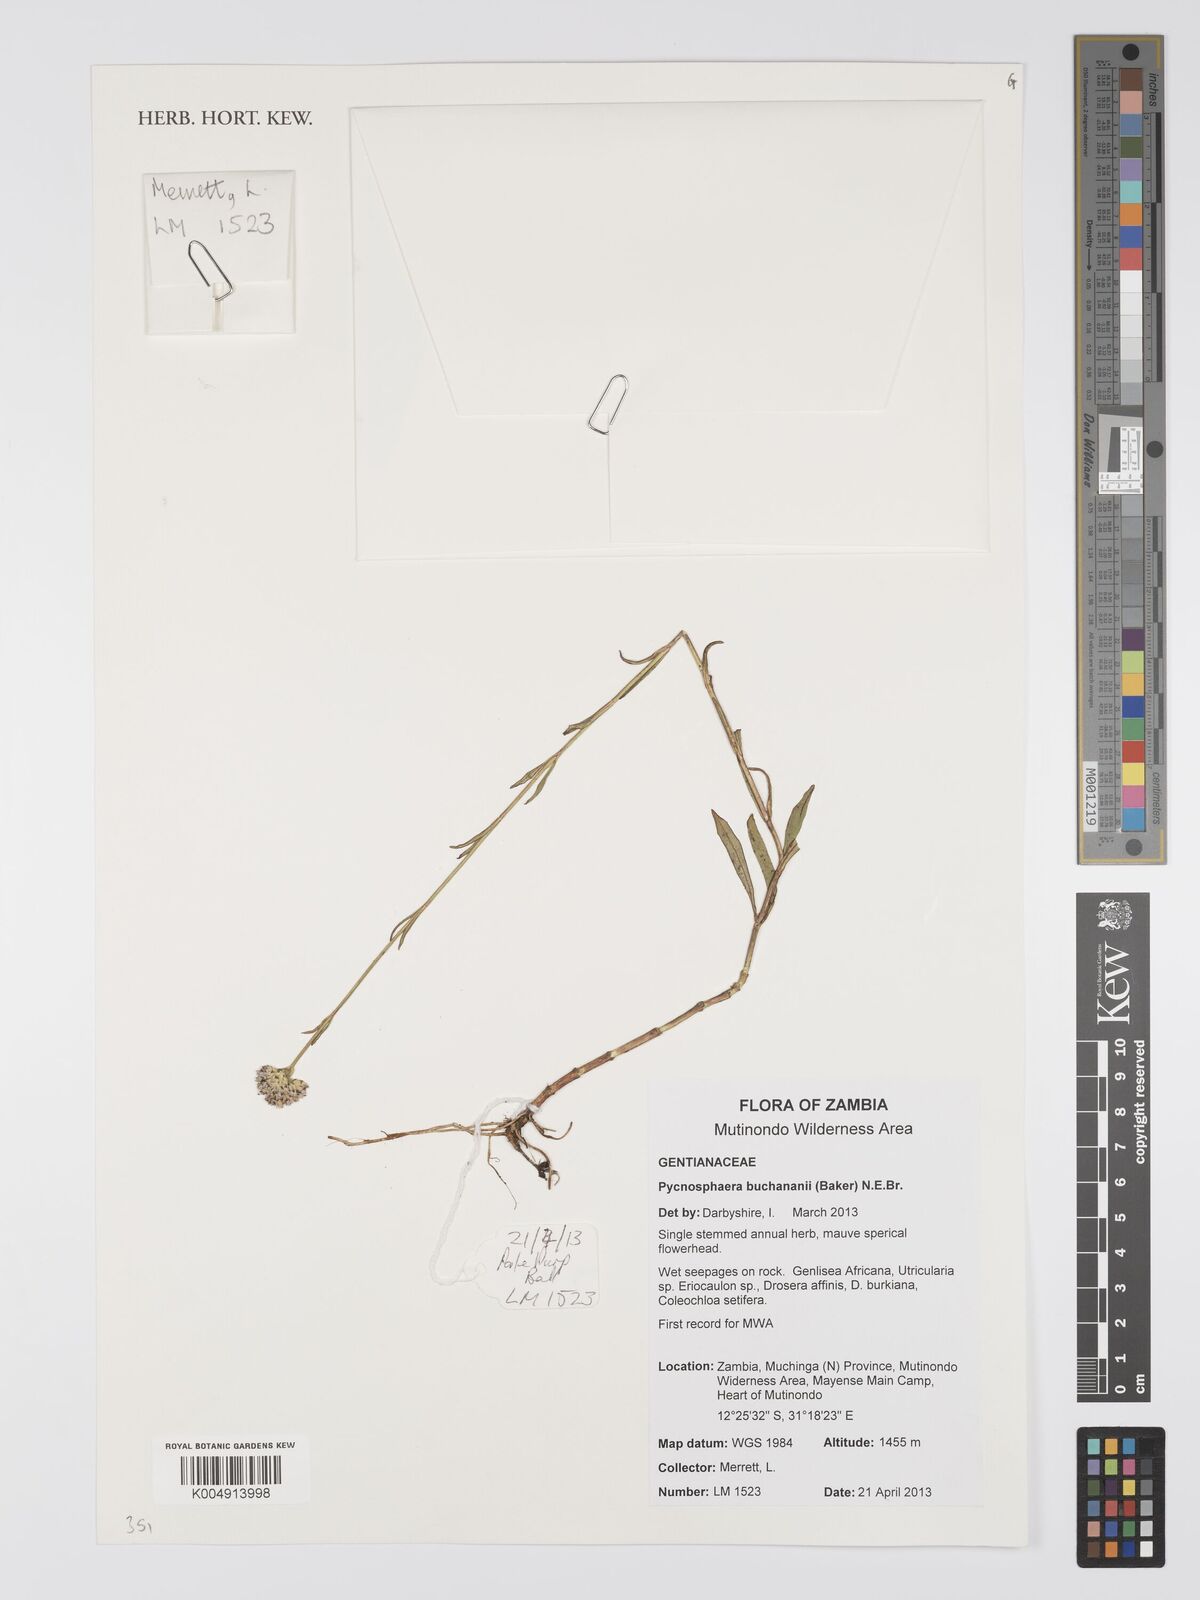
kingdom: Plantae
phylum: Tracheophyta
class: Magnoliopsida
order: Gentianales
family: Gentianaceae
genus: Pycnosphaera
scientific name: Pycnosphaera buchananii
